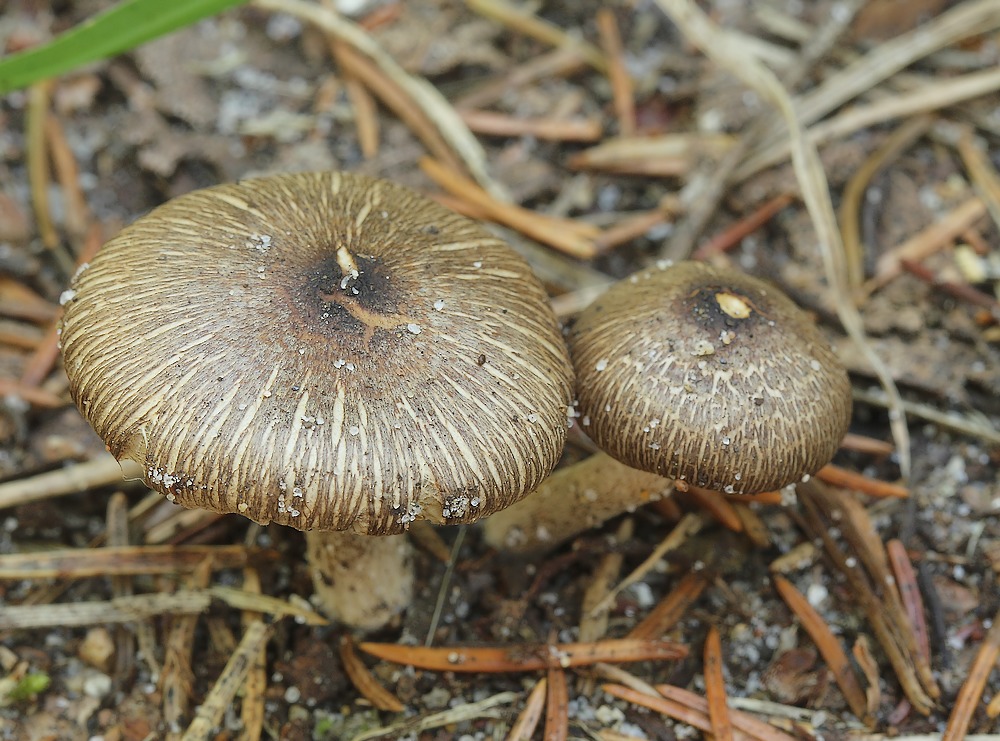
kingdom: Fungi
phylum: Basidiomycota
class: Agaricomycetes
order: Agaricales
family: Inocybaceae
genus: Inocybe
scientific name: Inocybe
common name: trævlhat
